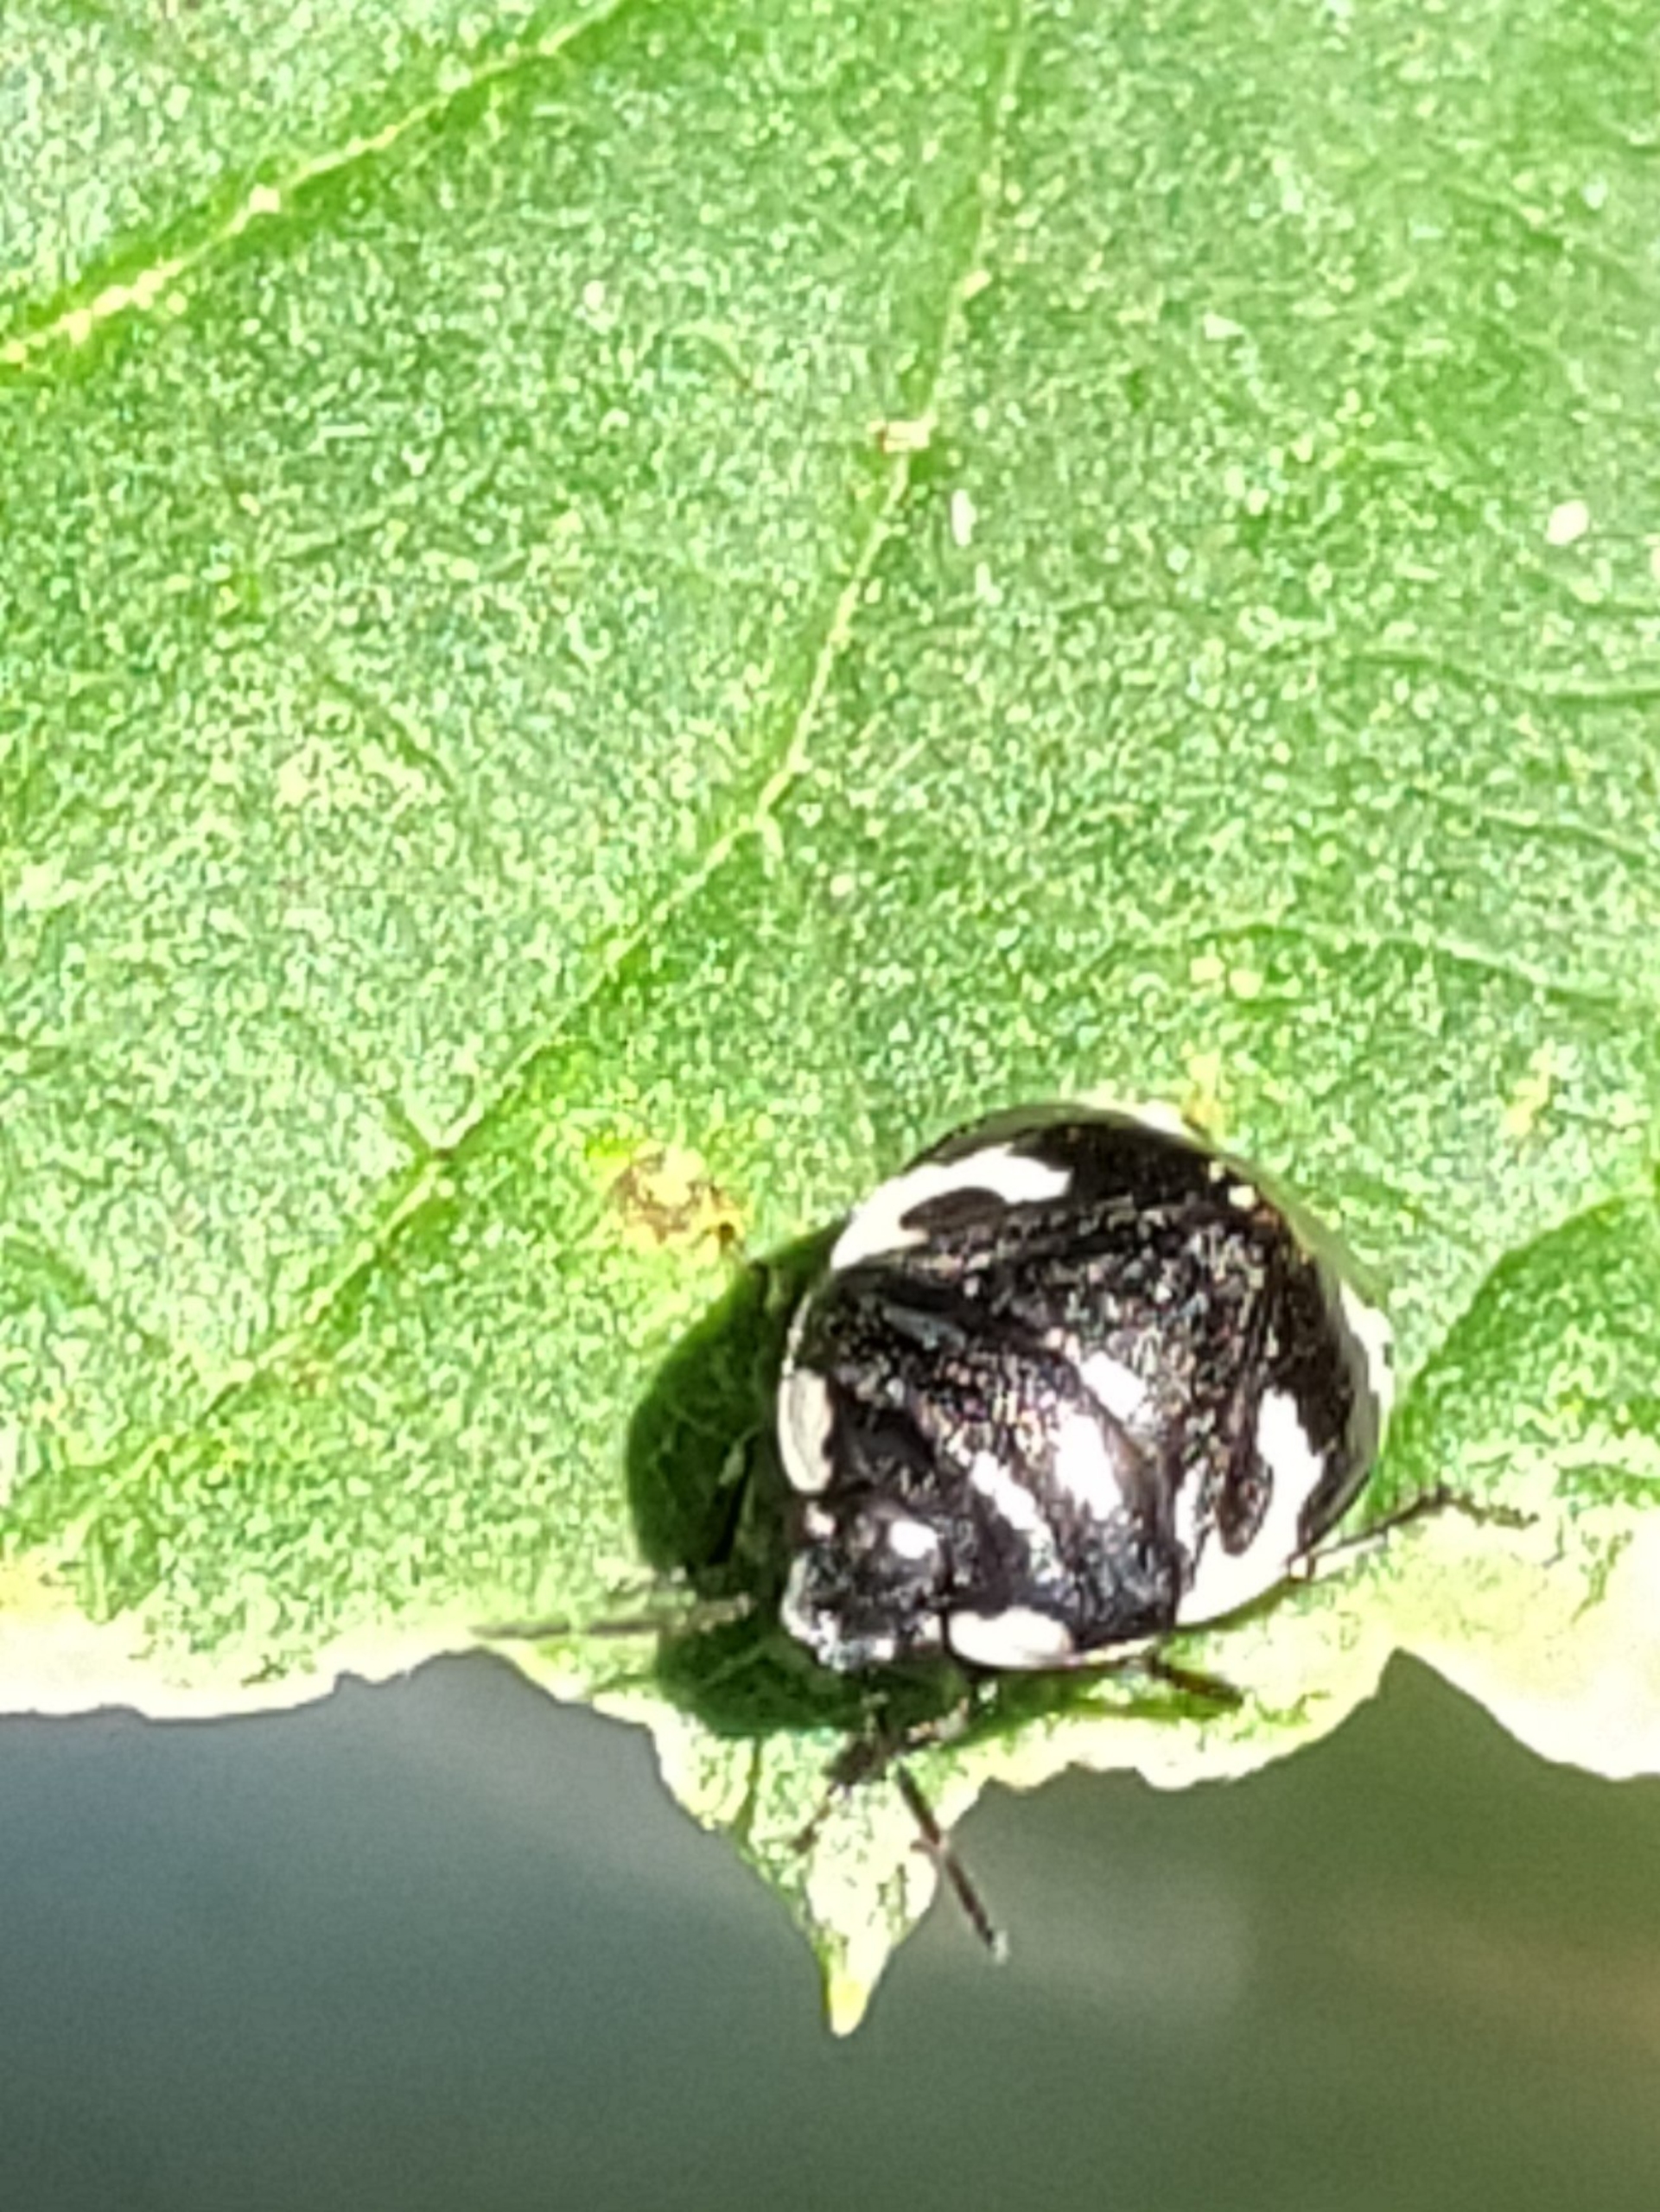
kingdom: Animalia
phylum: Arthropoda
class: Insecta
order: Hemiptera
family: Cydnidae
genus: Tritomegas
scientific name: Tritomegas bicolor
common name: Spættet tornben
